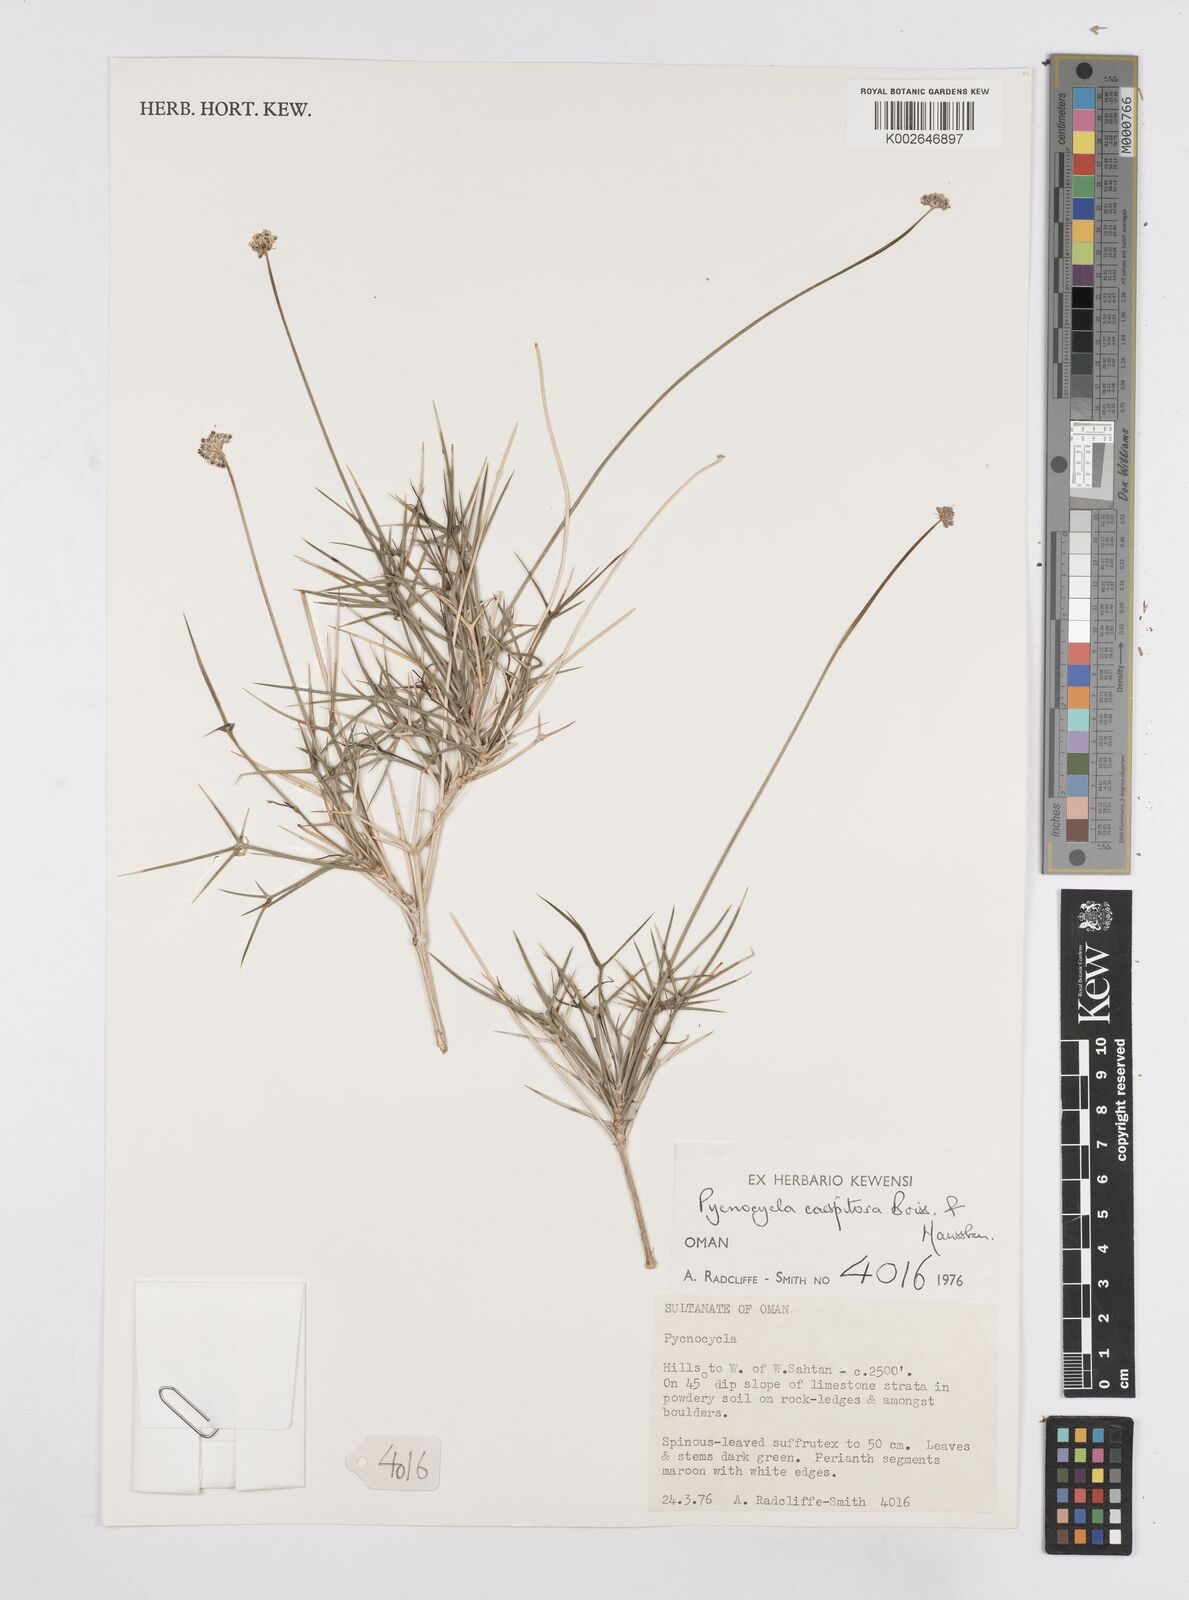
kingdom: Plantae
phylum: Tracheophyta
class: Magnoliopsida
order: Apiales
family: Apiaceae
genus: Pycnocycla
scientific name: Pycnocycla cespitosa
